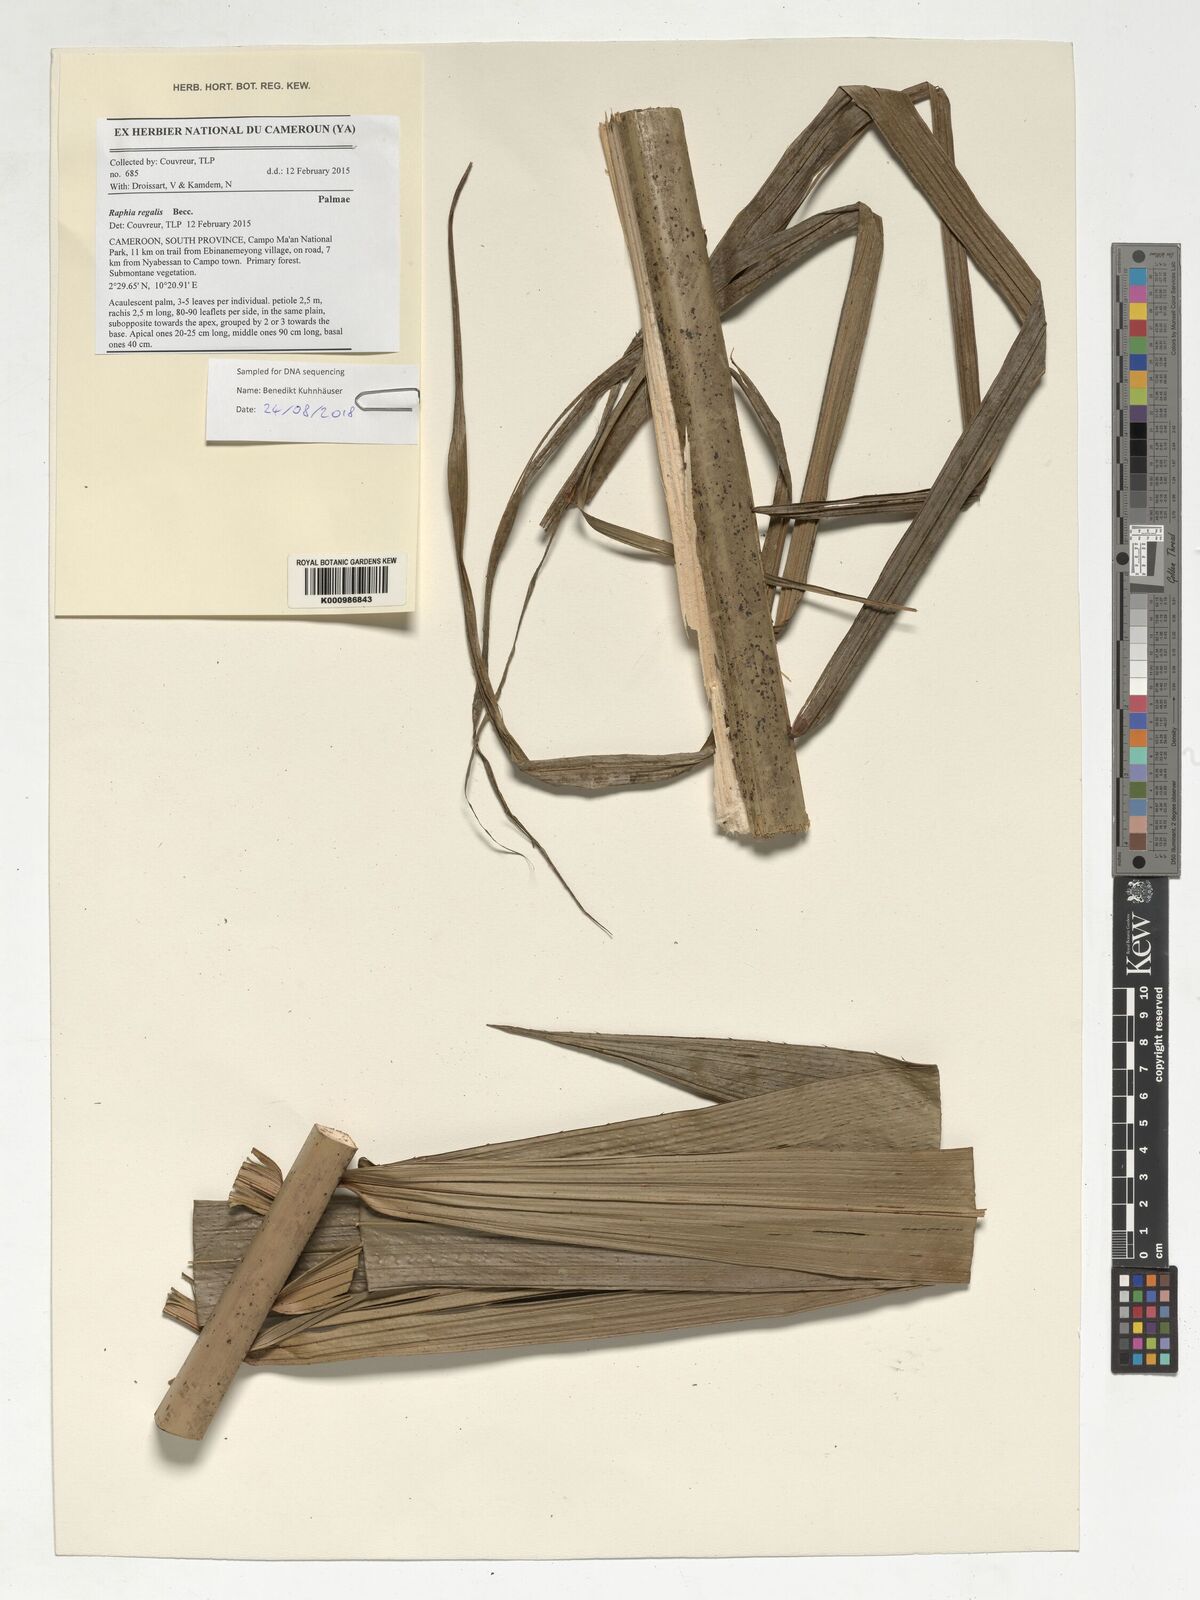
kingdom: Plantae
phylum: Tracheophyta
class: Liliopsida
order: Arecales
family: Arecaceae
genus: Raphia
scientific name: Raphia regalis
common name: Raphia palm
